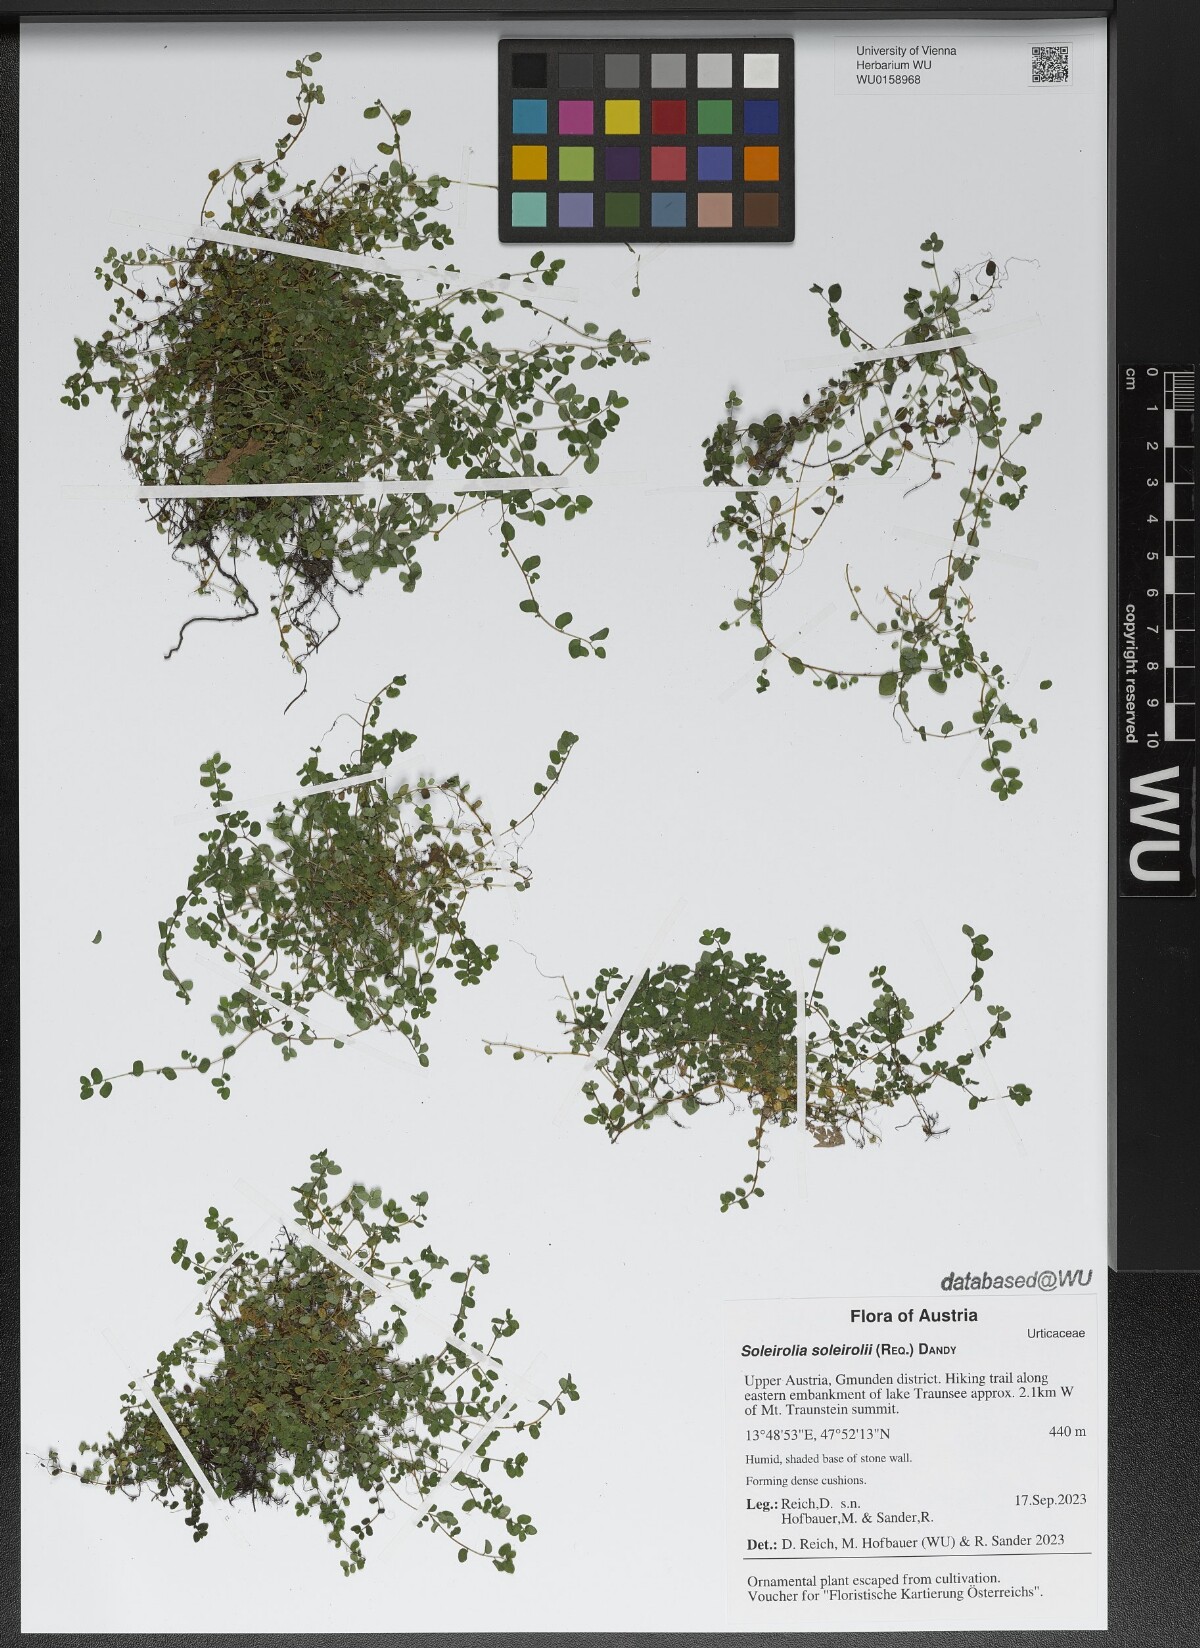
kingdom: Plantae
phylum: Tracheophyta
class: Magnoliopsida
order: Rosales
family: Urticaceae
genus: Soleirolia
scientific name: Soleirolia soleirolii
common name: Mind-your-own-business
